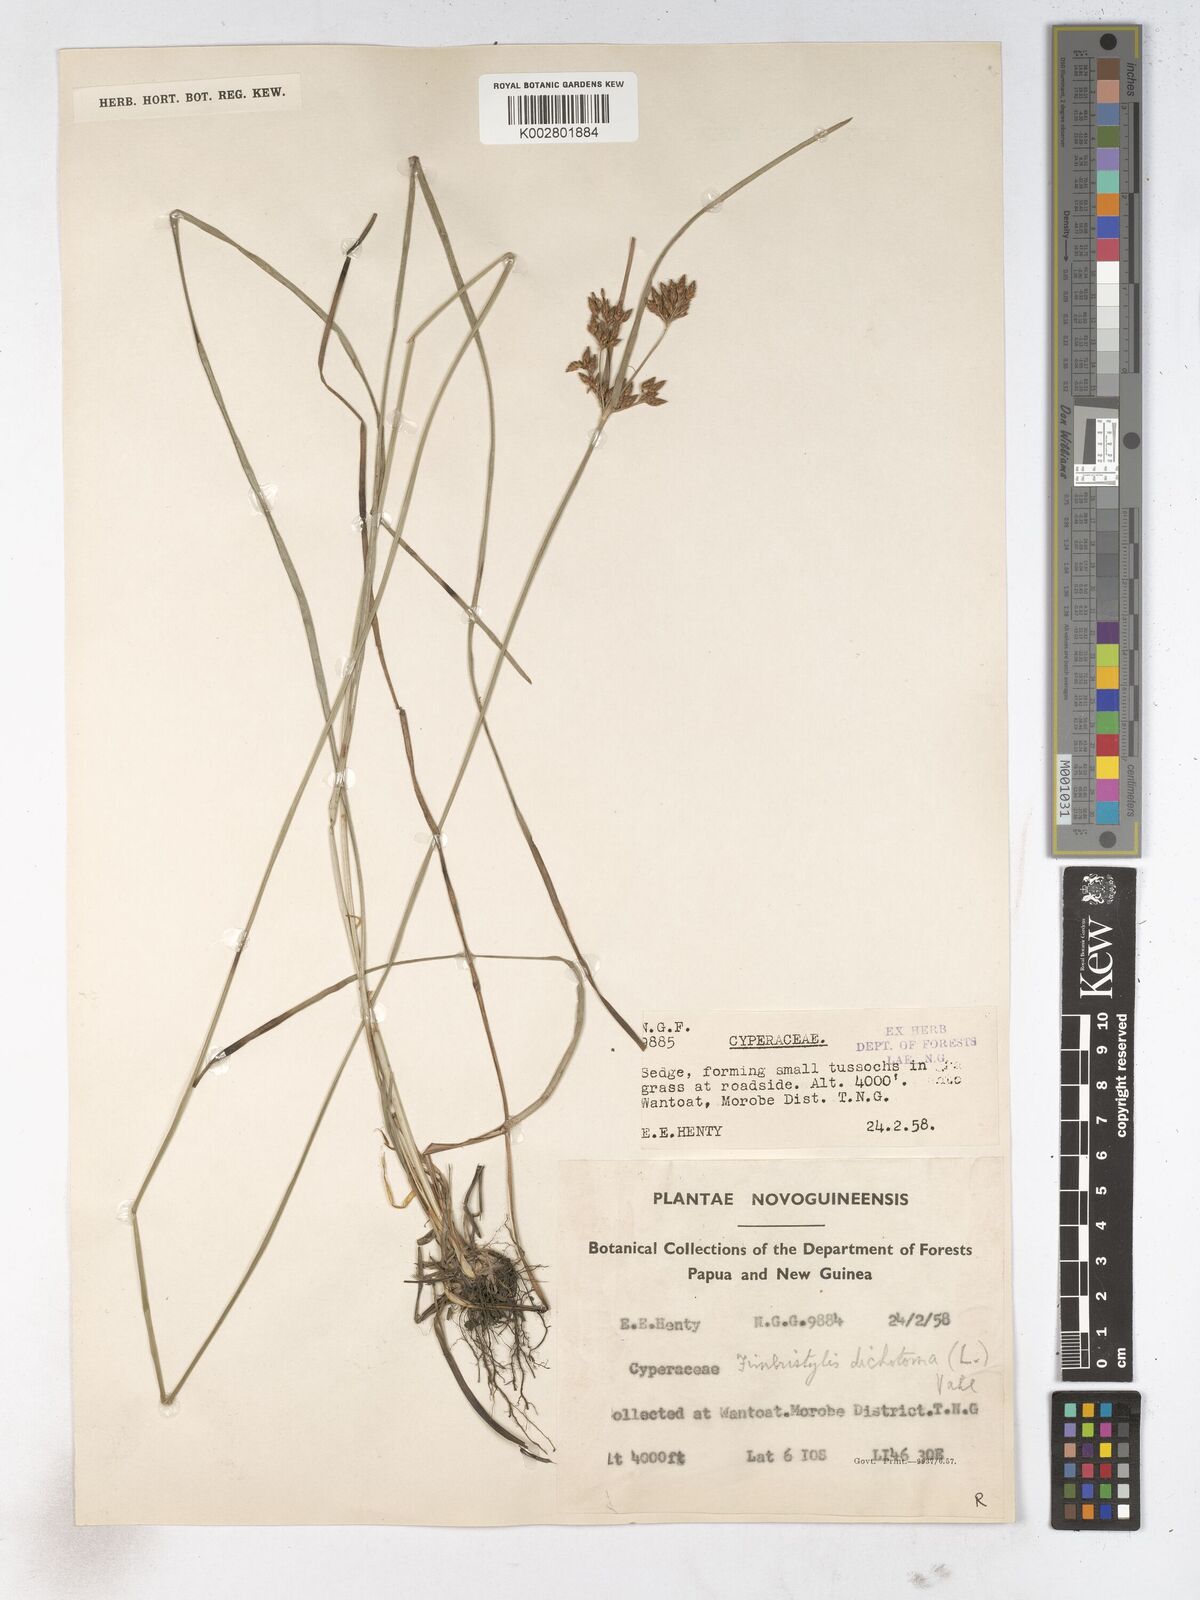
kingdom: Plantae
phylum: Tracheophyta
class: Liliopsida
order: Poales
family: Cyperaceae
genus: Fimbristylis
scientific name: Fimbristylis dichotoma
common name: Forked fimbry
